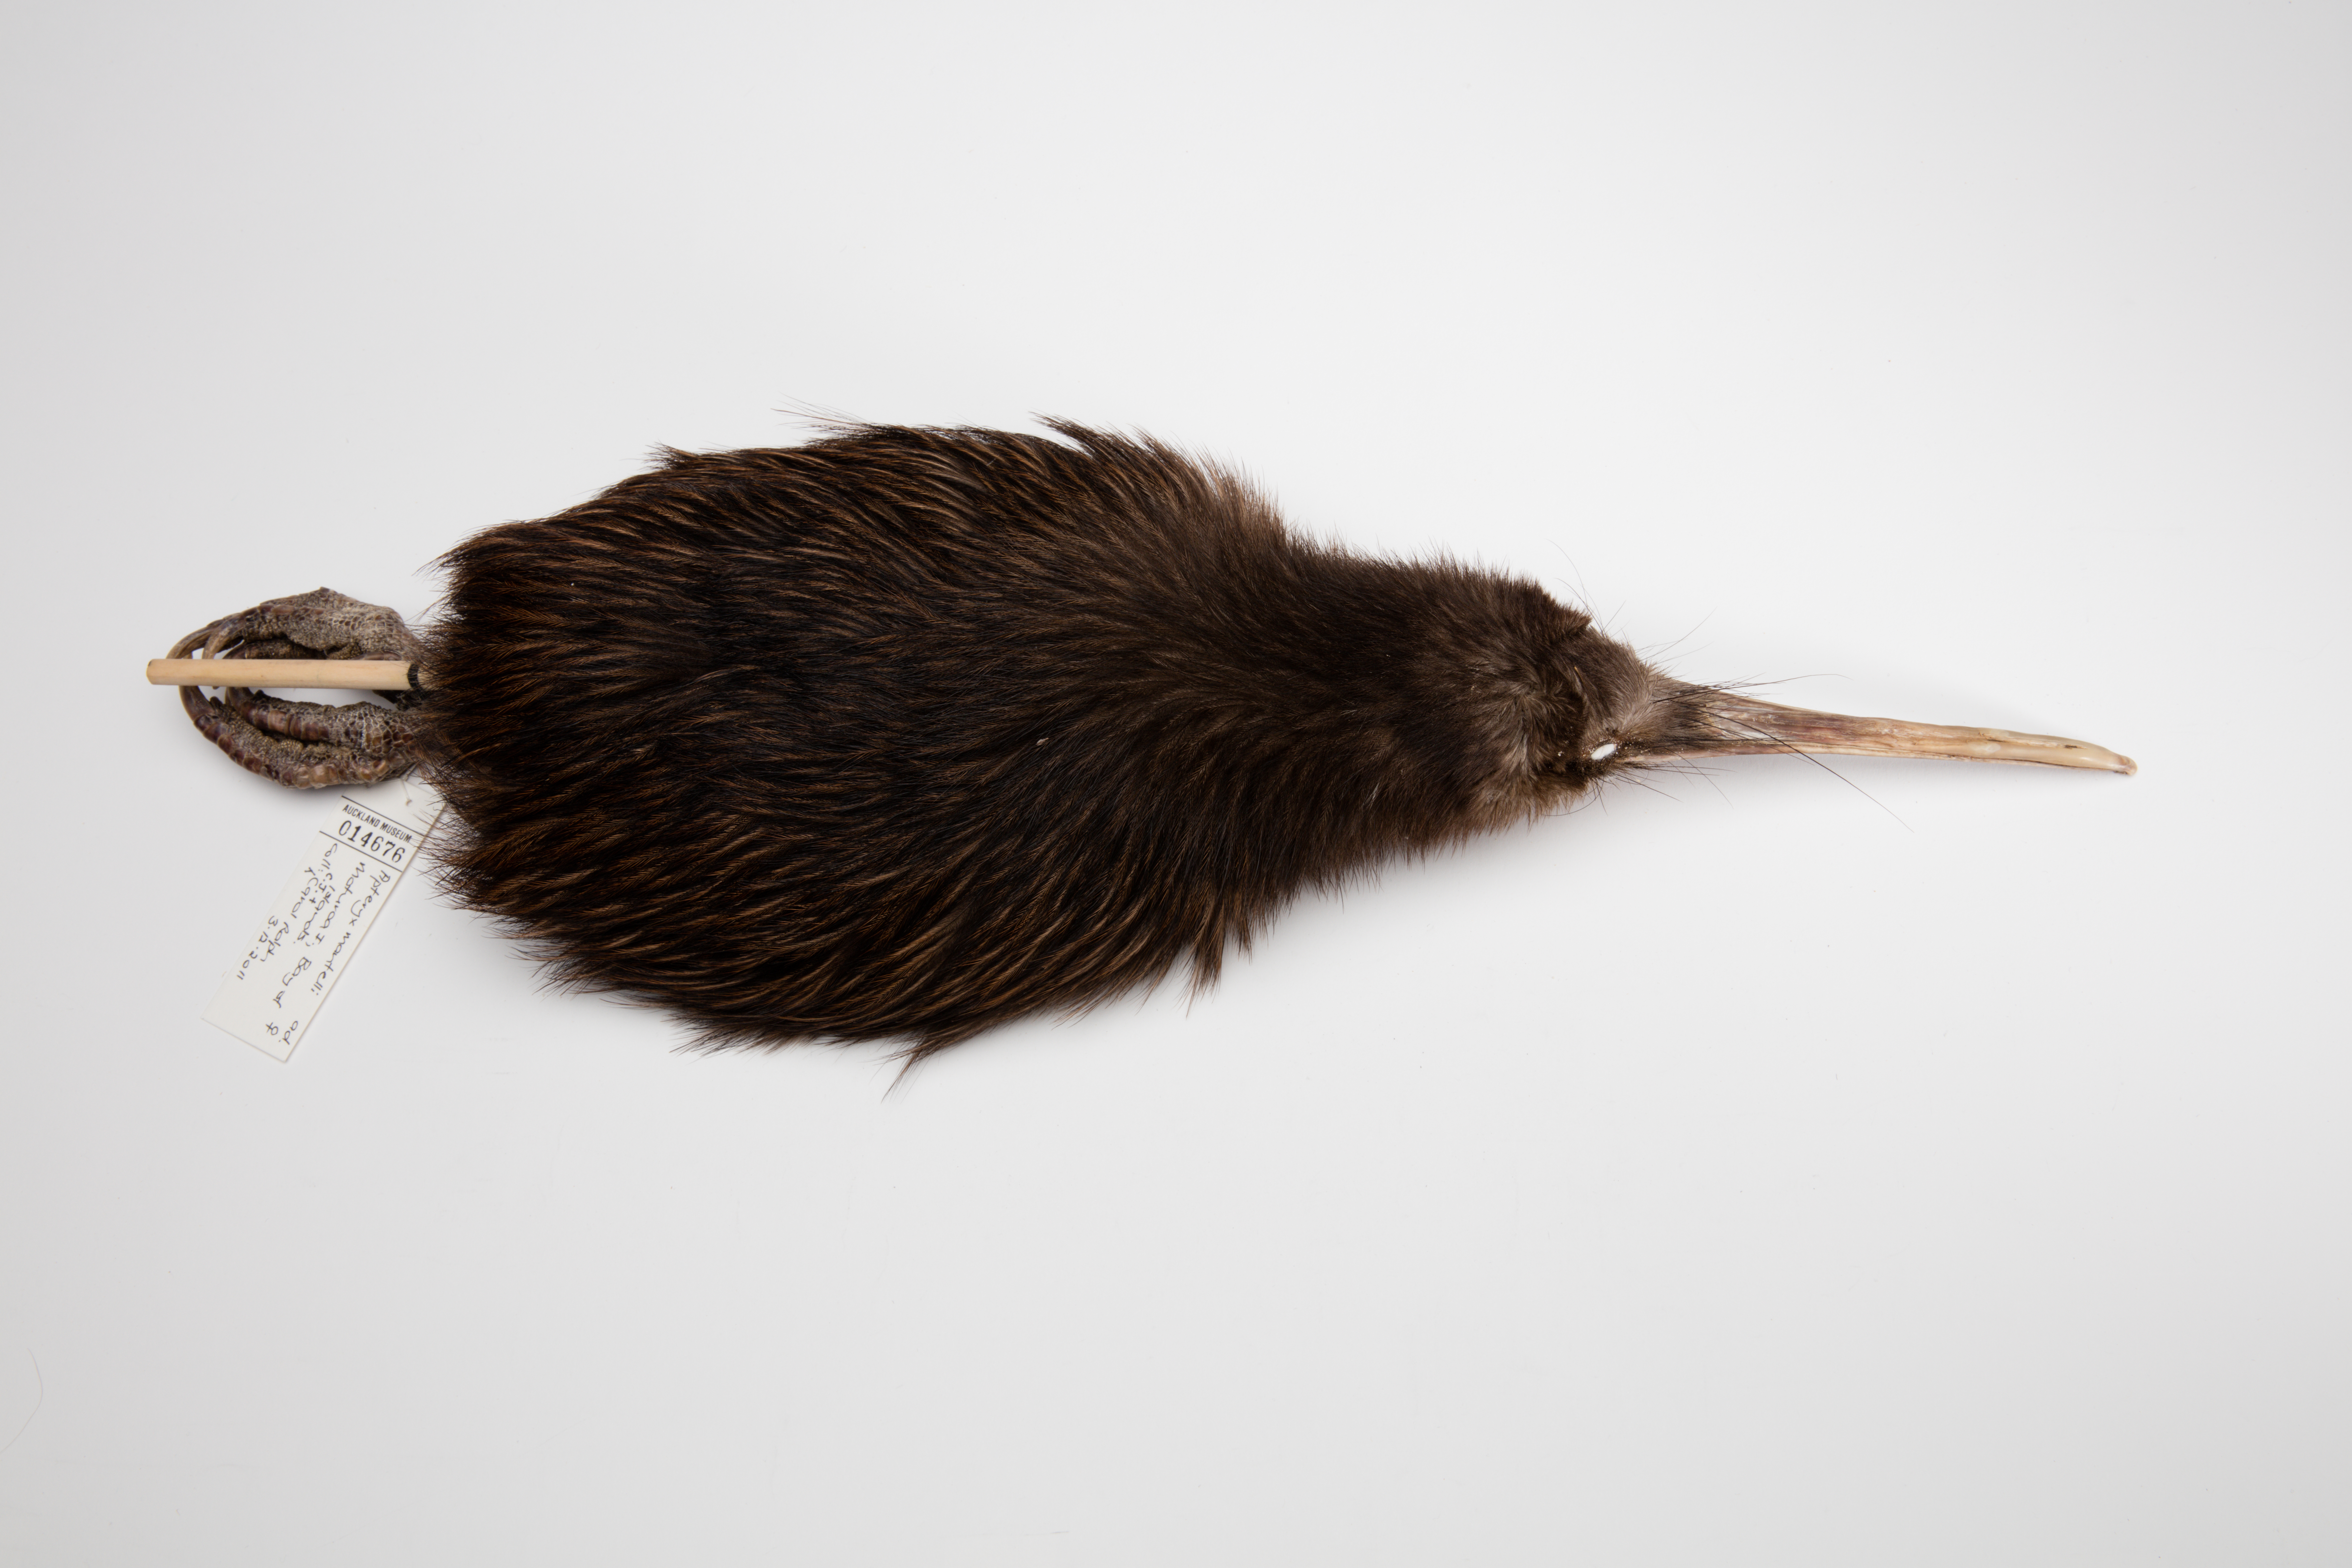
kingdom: Animalia
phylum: Chordata
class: Aves
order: Apterygiformes
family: Apterygidae
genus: Apteryx
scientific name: Apteryx mantelli
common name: North island brown kiwi
